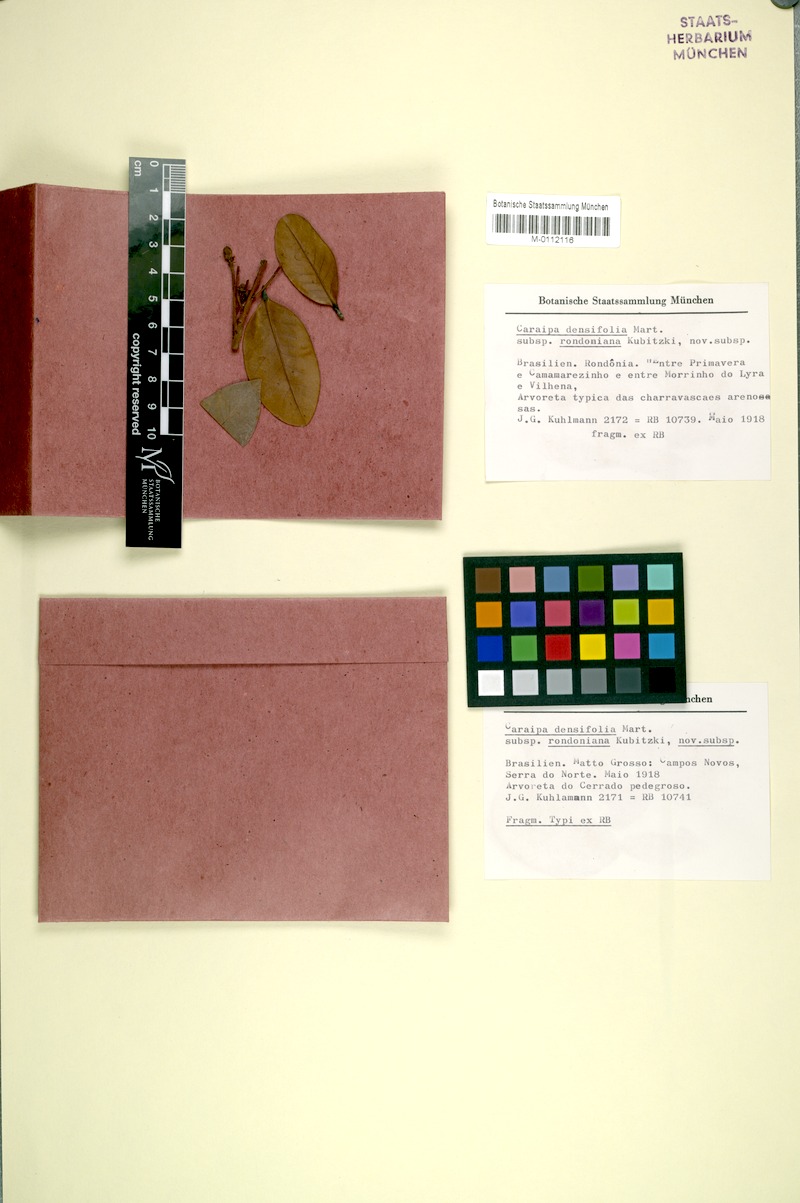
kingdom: Plantae
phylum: Tracheophyta
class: Magnoliopsida
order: Malpighiales
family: Calophyllaceae
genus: Caraipa
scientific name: Caraipa densifolia
